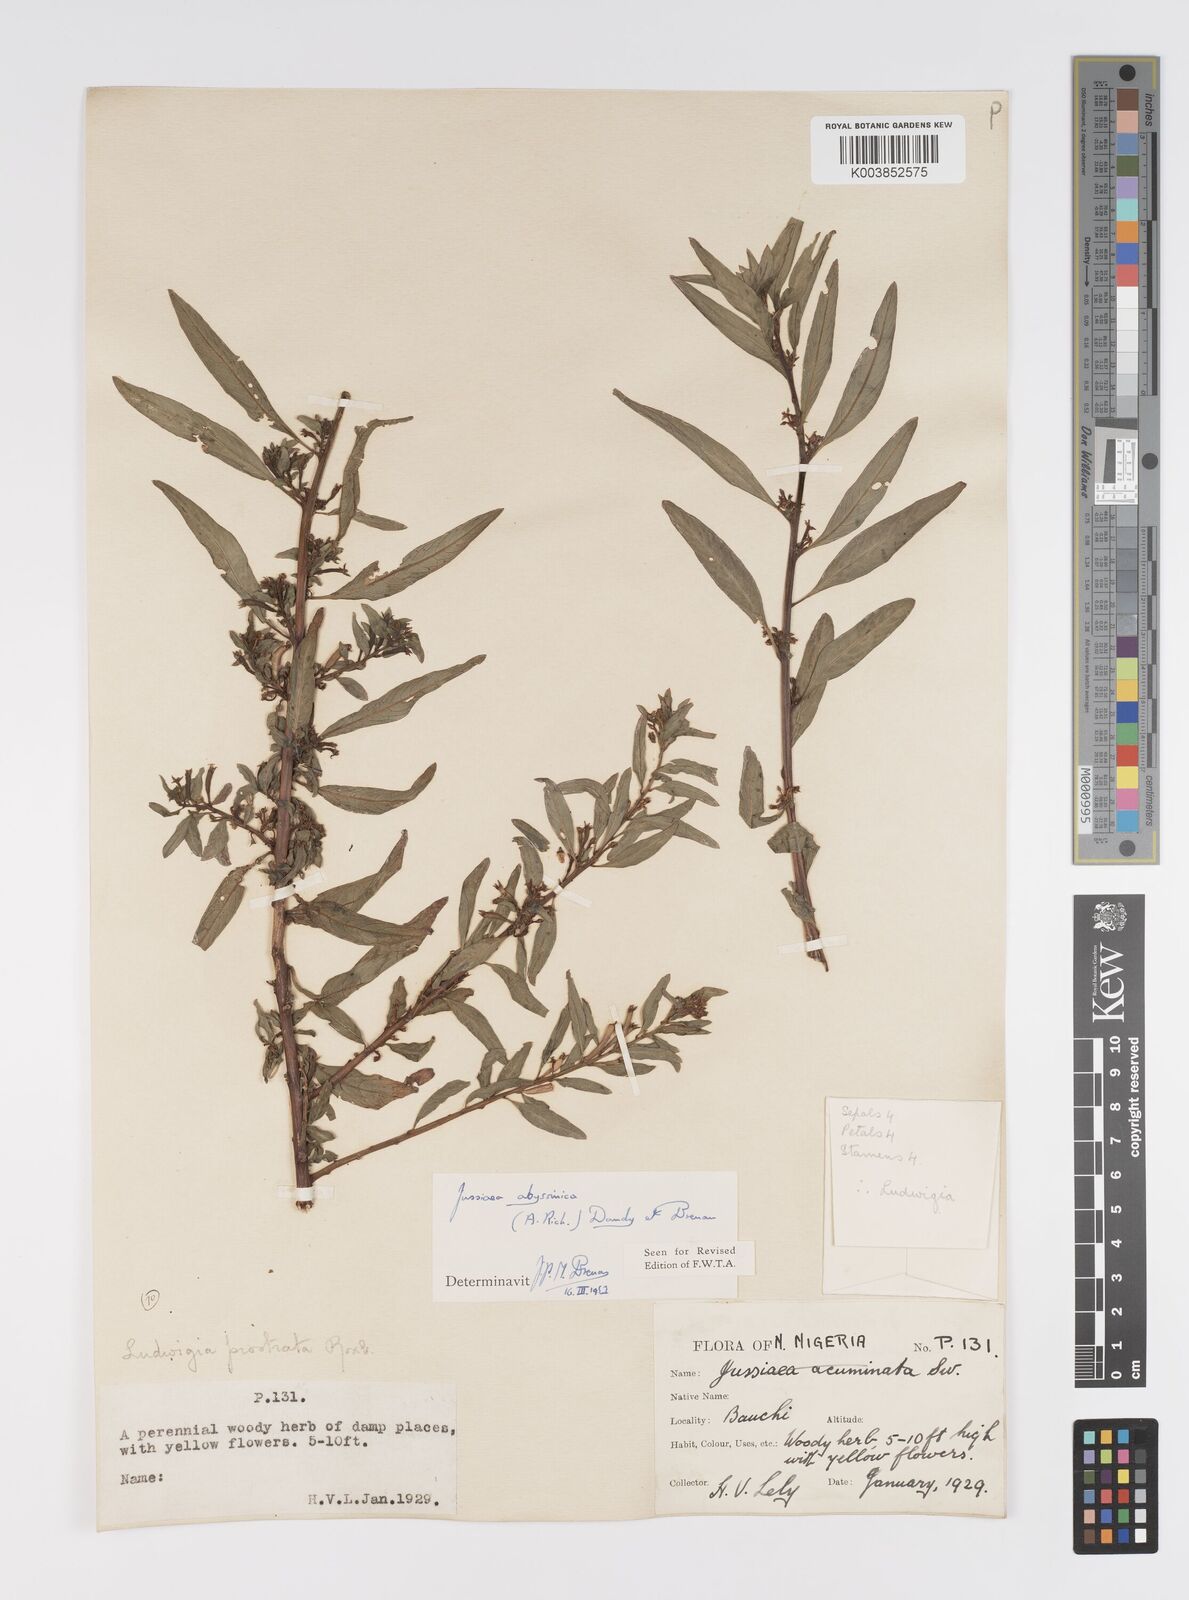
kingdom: Plantae
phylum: Tracheophyta
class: Magnoliopsida
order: Myrtales
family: Onagraceae
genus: Ludwigia
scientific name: Ludwigia abyssinica
